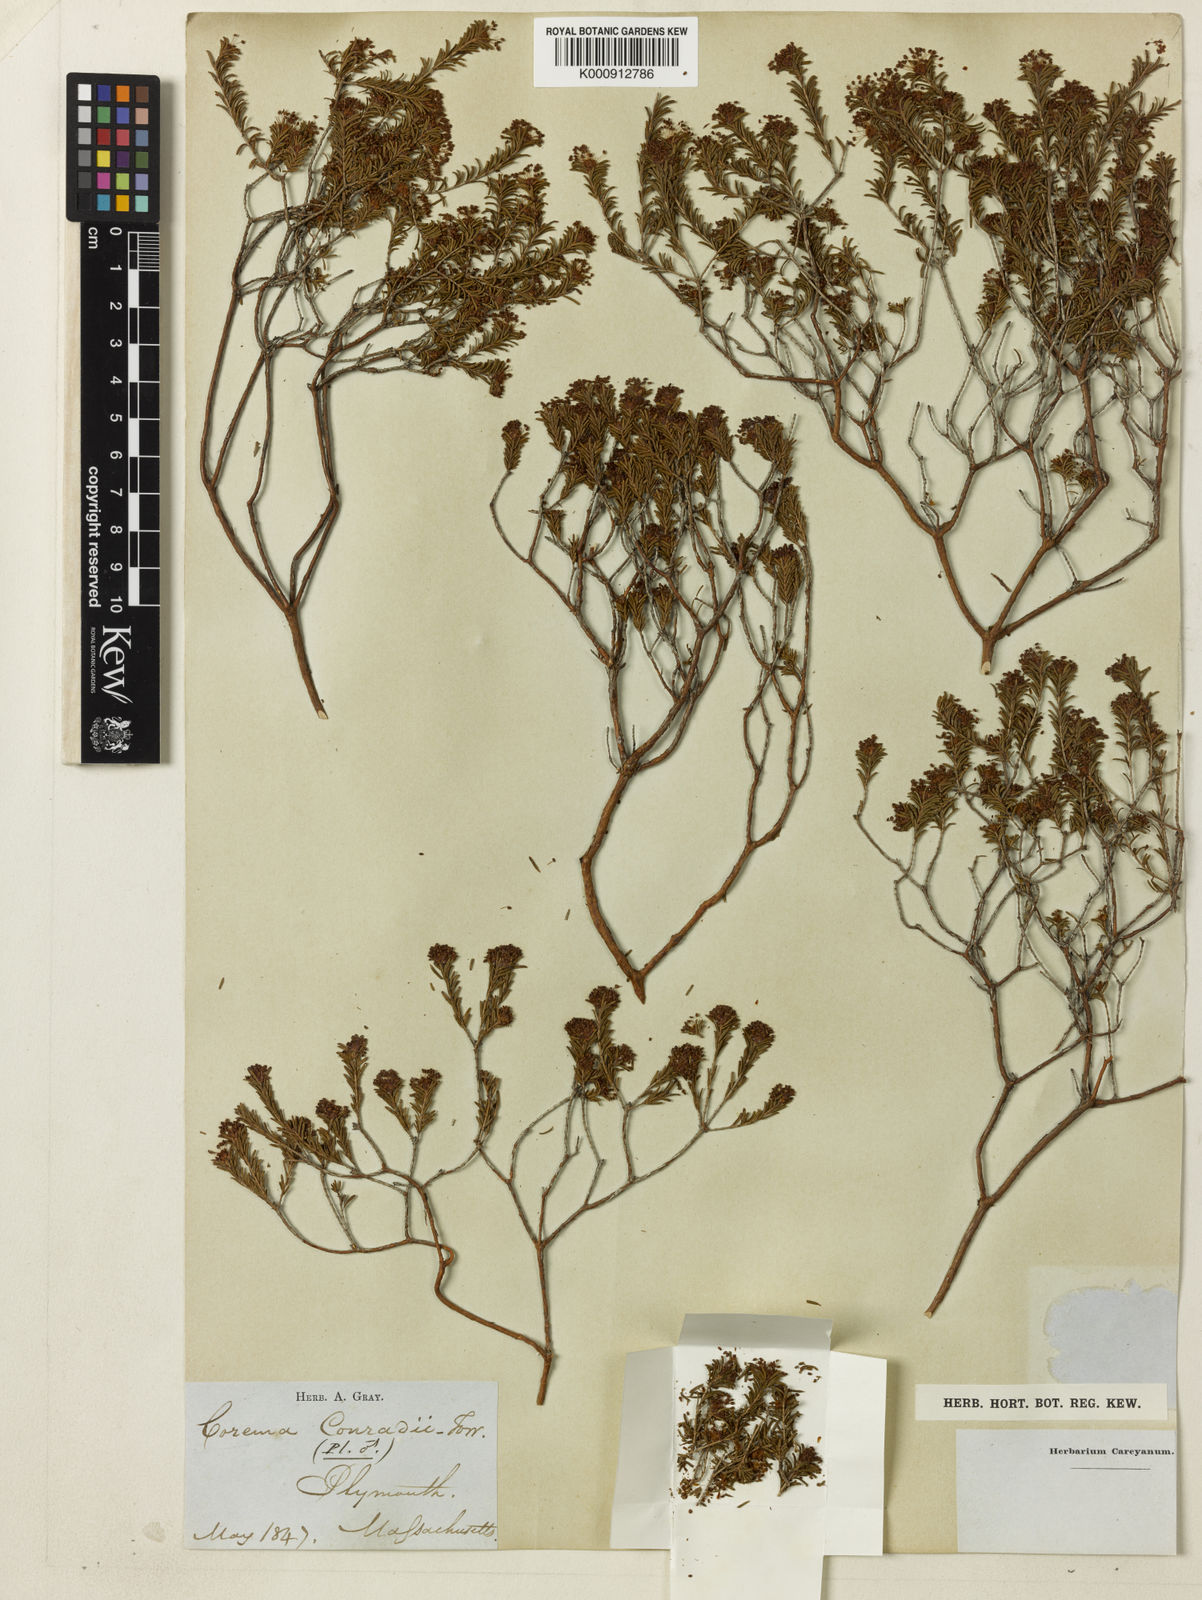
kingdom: Plantae
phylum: Tracheophyta
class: Magnoliopsida
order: Ericales
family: Ericaceae
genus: Corema
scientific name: Corema
